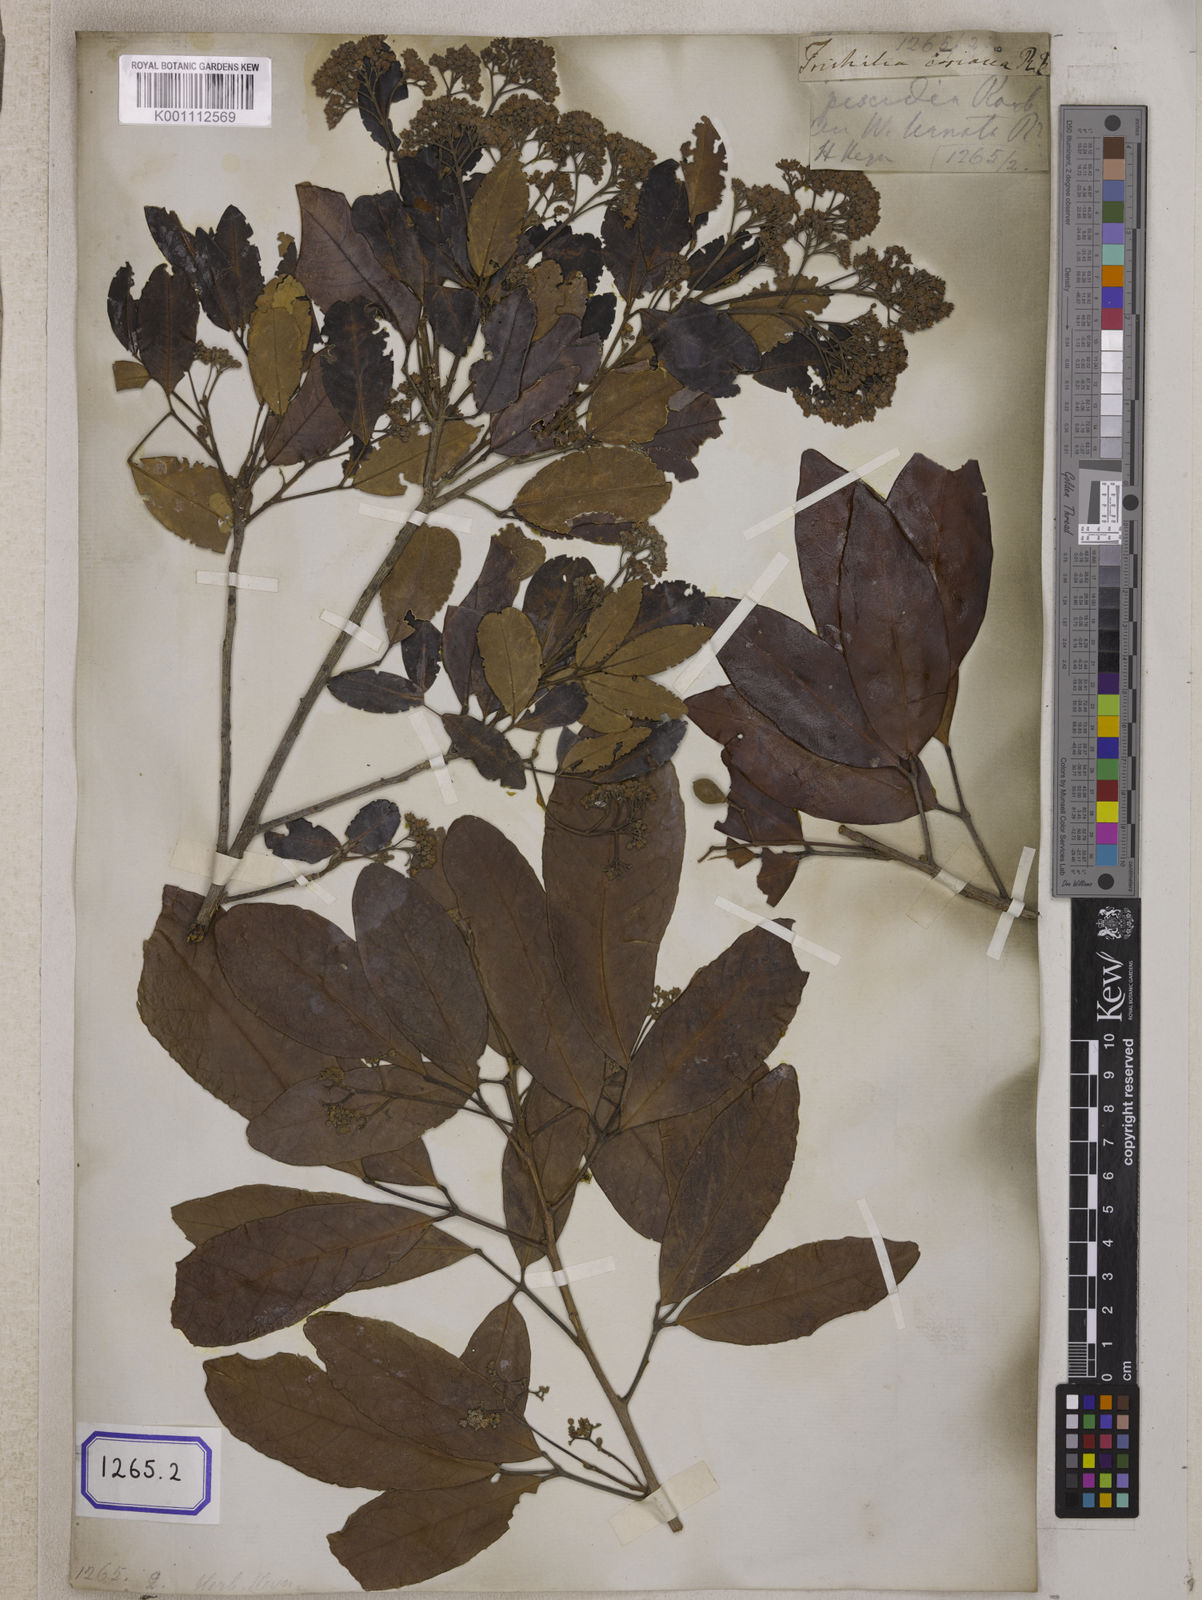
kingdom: Plantae
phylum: Tracheophyta
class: Magnoliopsida
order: Sapindales
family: Meliaceae
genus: Walsura
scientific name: Walsura trifoliolata
